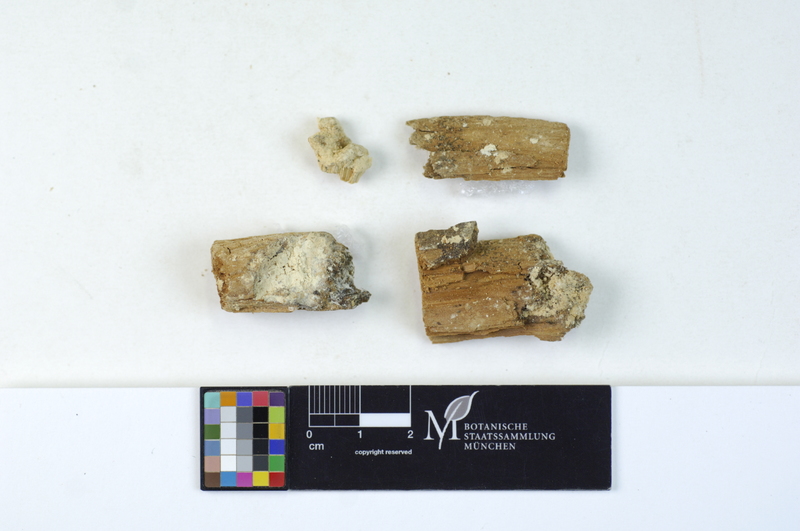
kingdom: Fungi
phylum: Basidiomycota
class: Agaricomycetes
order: Polyporales
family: Dacryobolaceae
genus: Oligoporus
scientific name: Oligoporus rennyi
